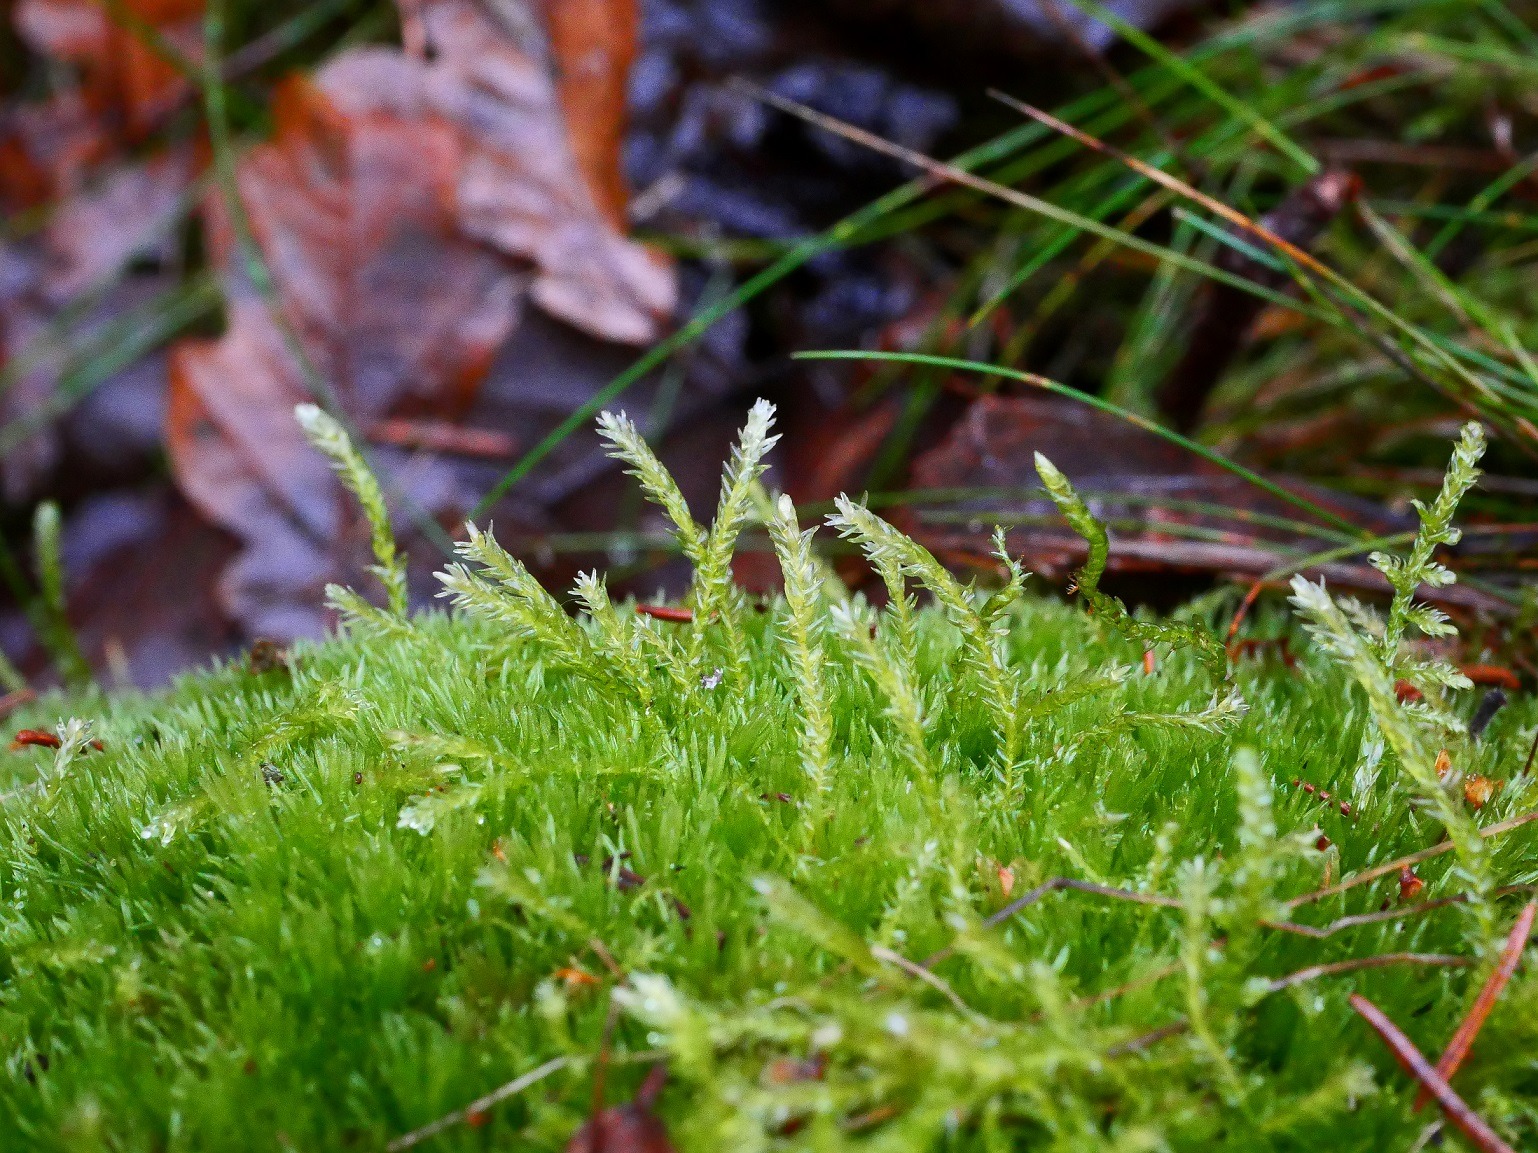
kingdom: Plantae
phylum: Bryophyta
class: Bryopsida
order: Hypnales
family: Calliergonaceae
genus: Straminergon
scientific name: Straminergon stramineum
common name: Tråd-skebladsmos
